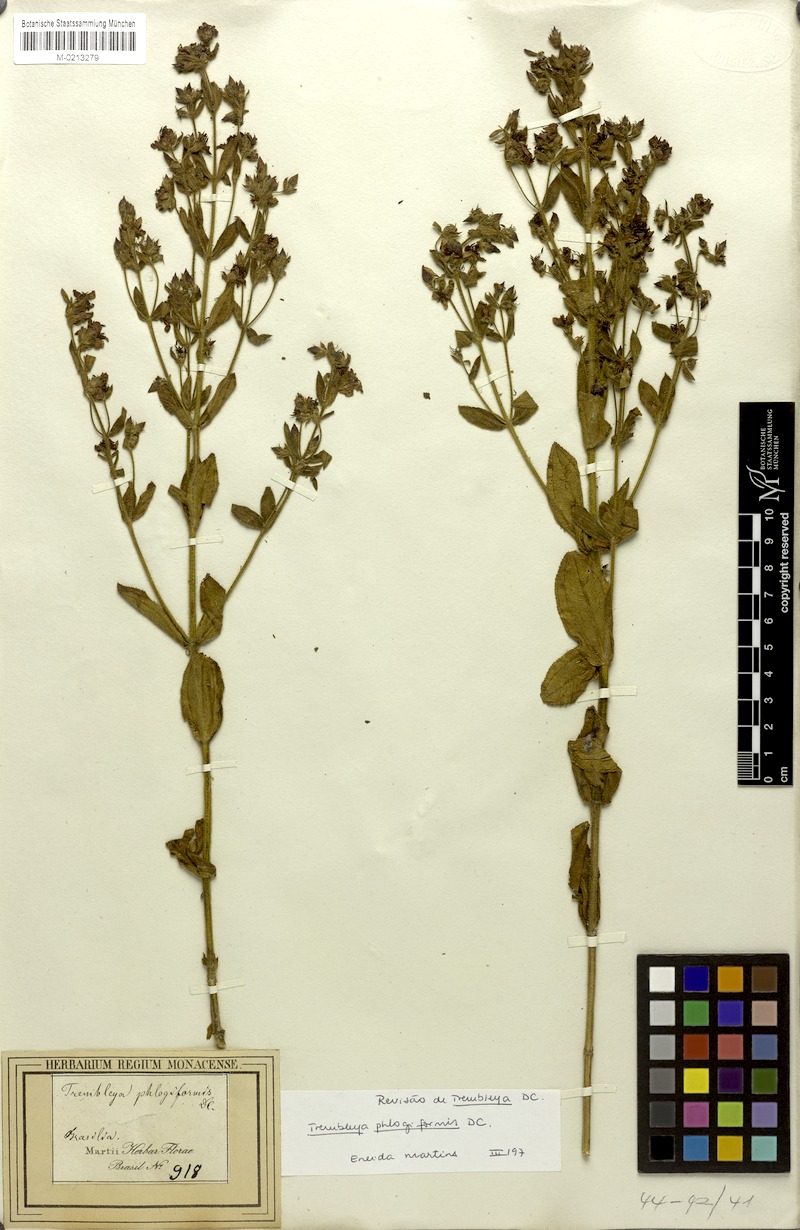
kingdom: Plantae
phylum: Tracheophyta
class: Magnoliopsida
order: Myrtales
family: Melastomataceae
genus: Microlicia
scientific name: Microlicia phlogiformis
